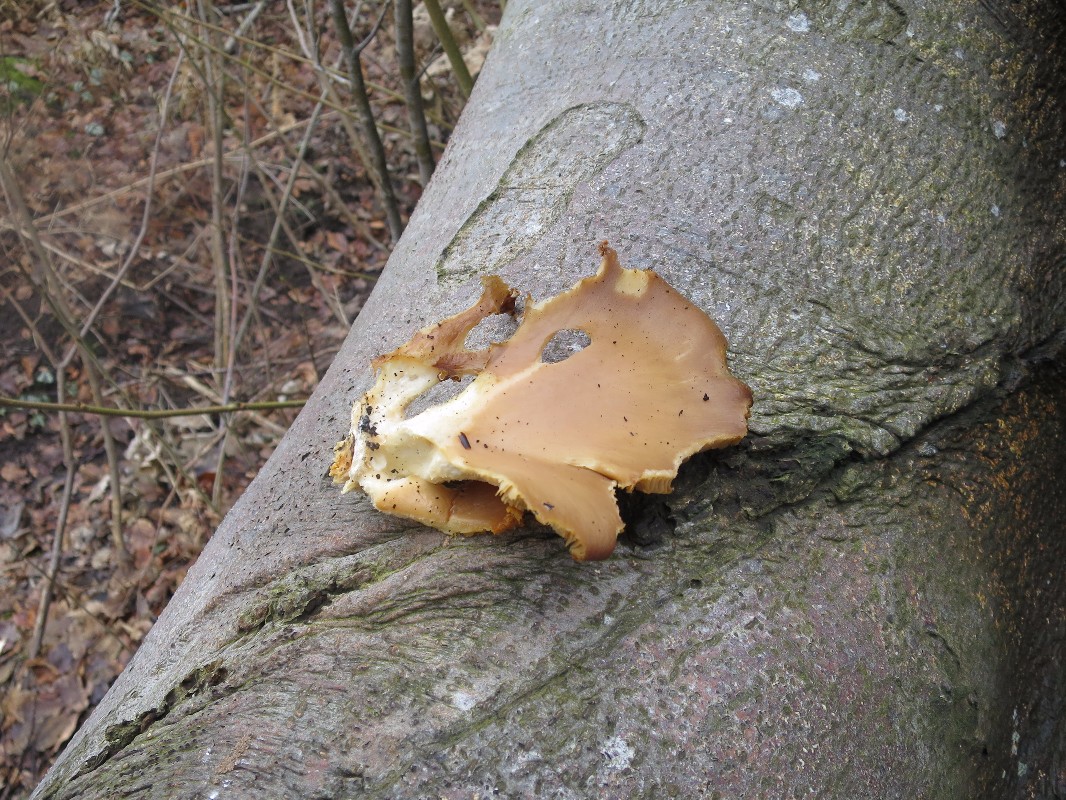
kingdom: Fungi
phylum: Basidiomycota
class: Agaricomycetes
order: Agaricales
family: Pleurotaceae
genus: Pleurotus
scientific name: Pleurotus ostreatus
